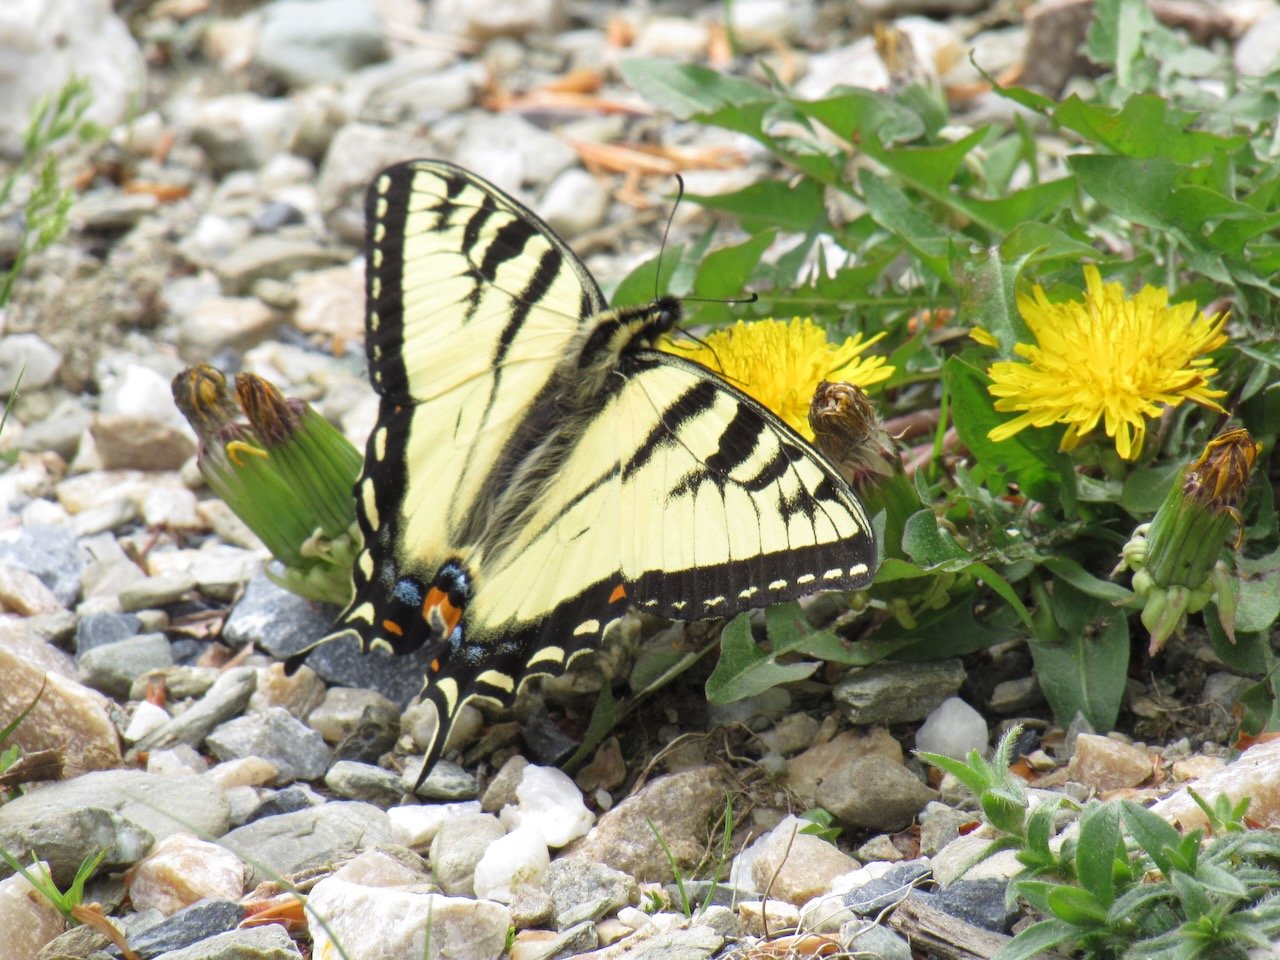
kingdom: Animalia
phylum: Arthropoda
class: Insecta
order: Lepidoptera
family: Papilionidae
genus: Pterourus
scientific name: Pterourus canadensis
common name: Canadian Tiger Swallowtail
